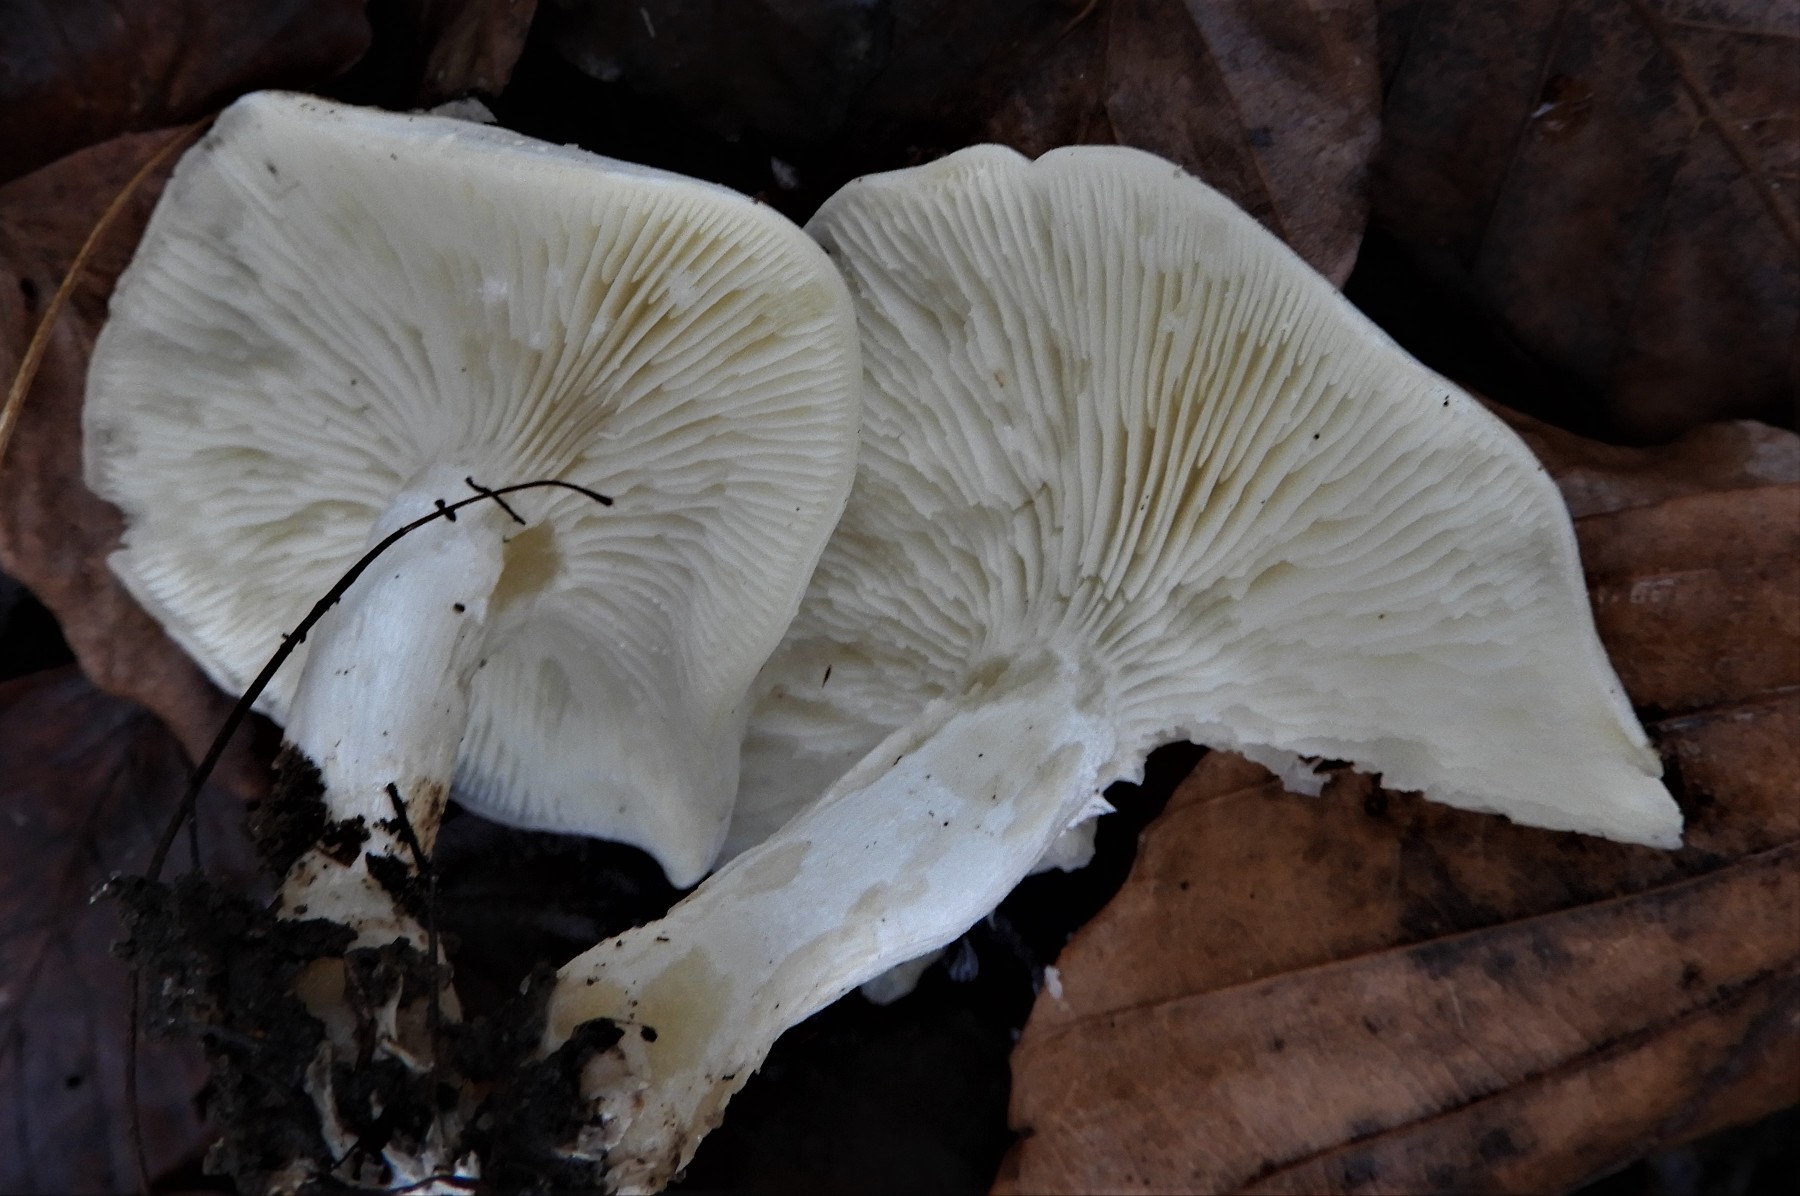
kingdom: Fungi
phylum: Basidiomycota
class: Agaricomycetes
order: Agaricales
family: Tricholomataceae
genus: Leucocybe
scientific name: Leucocybe connata
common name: knippe-tragthat
